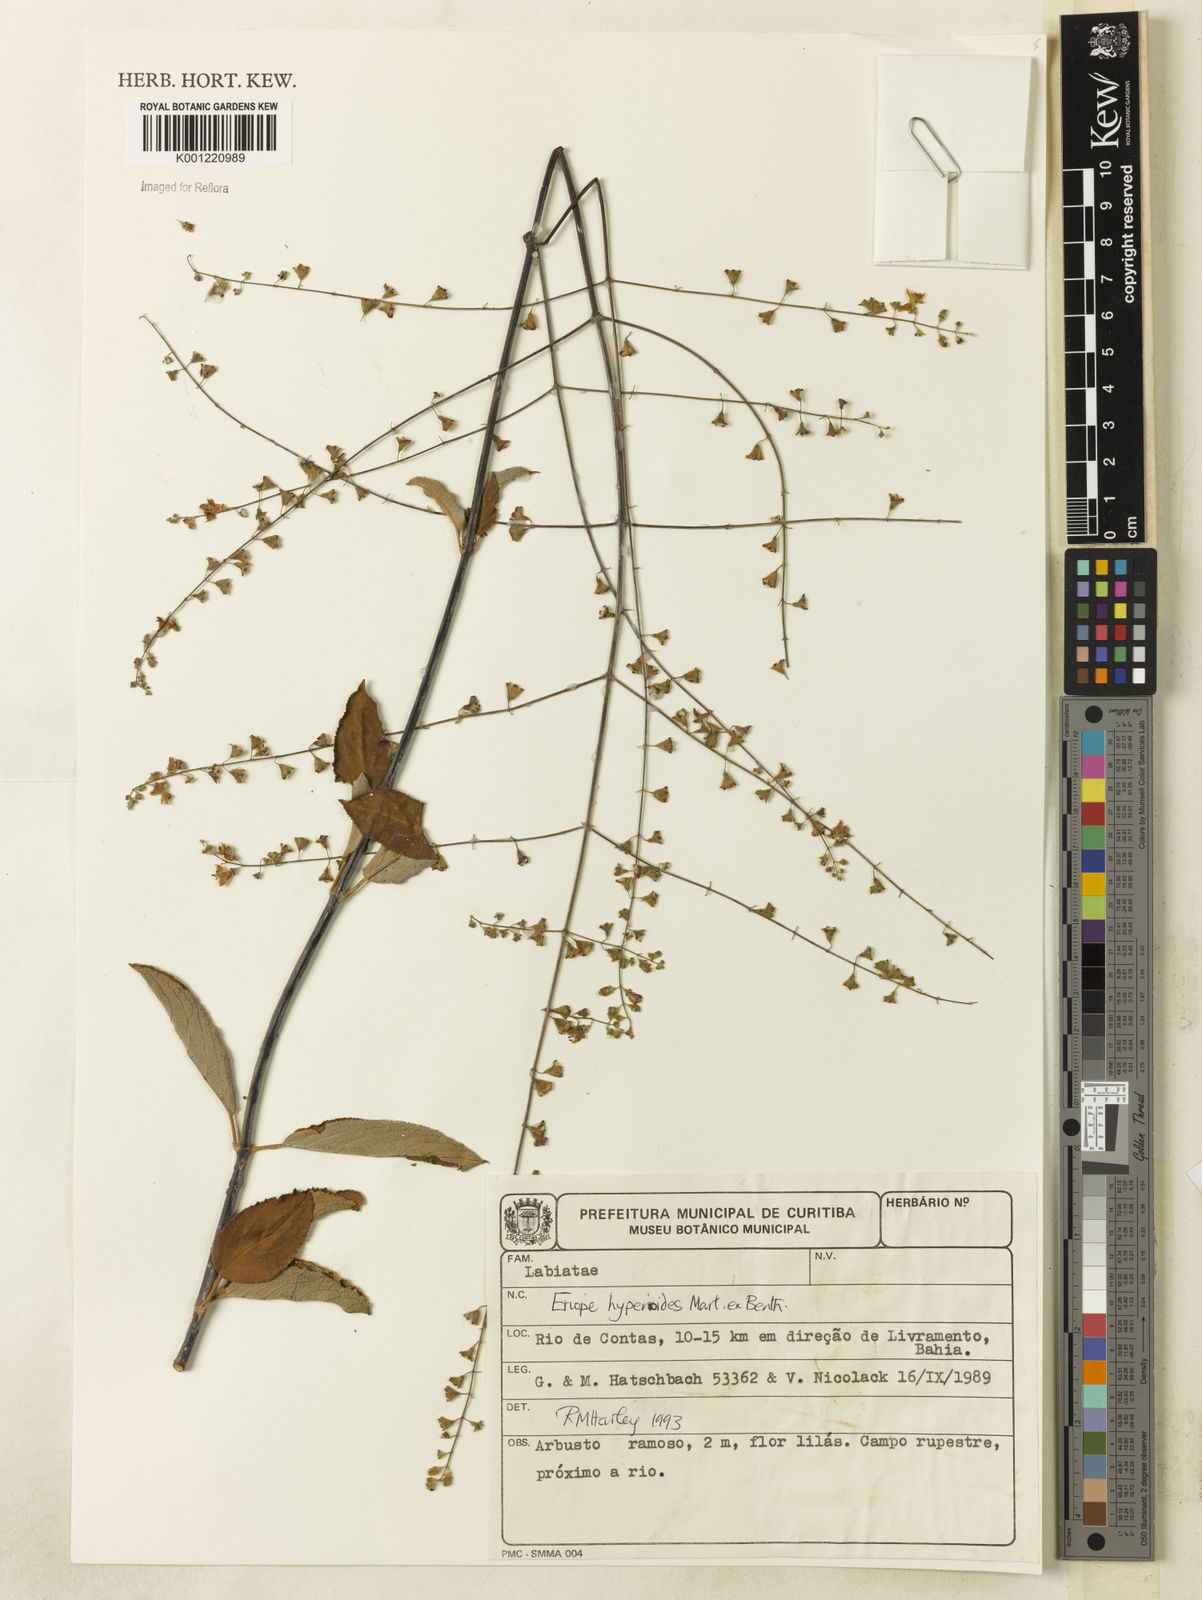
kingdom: Plantae
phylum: Tracheophyta
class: Magnoliopsida
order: Lamiales
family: Lamiaceae
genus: Eriope
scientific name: Eriope hypenioides
